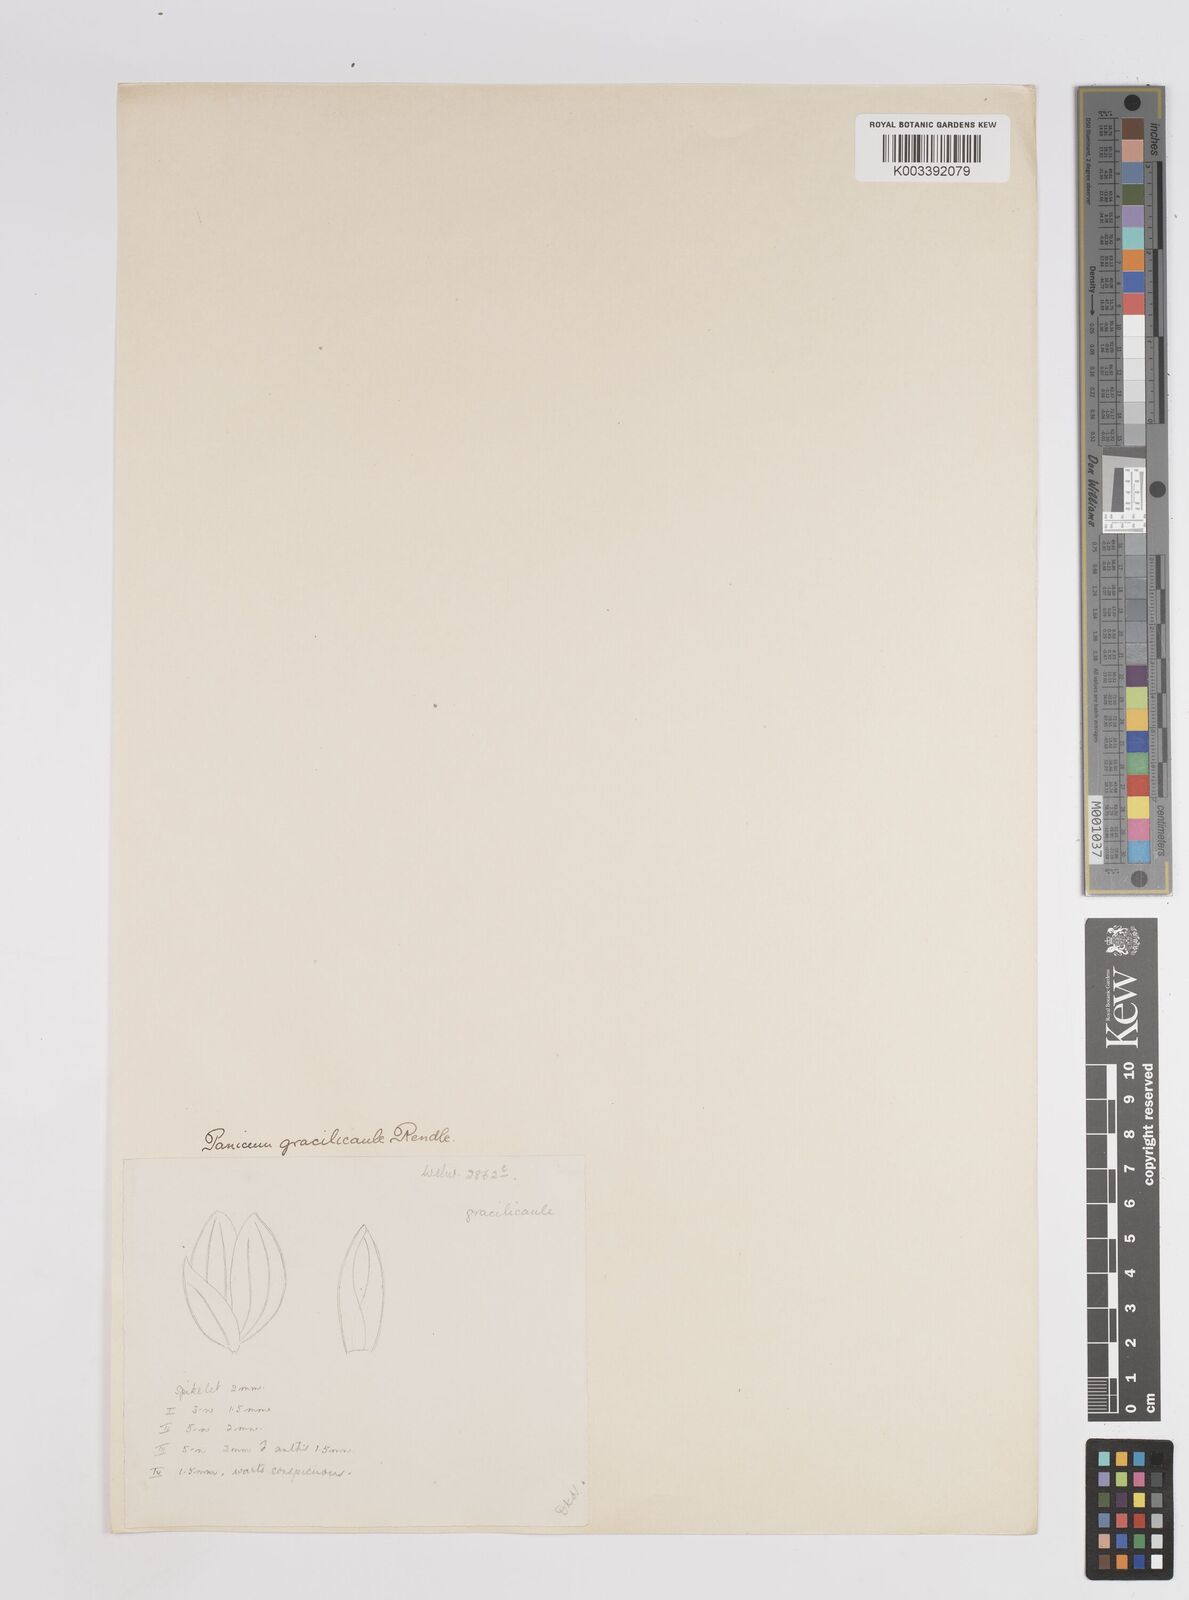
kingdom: Plantae
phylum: Tracheophyta
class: Liliopsida
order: Poales
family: Poaceae
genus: Trichanthecium
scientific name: Trichanthecium gracilicaule
